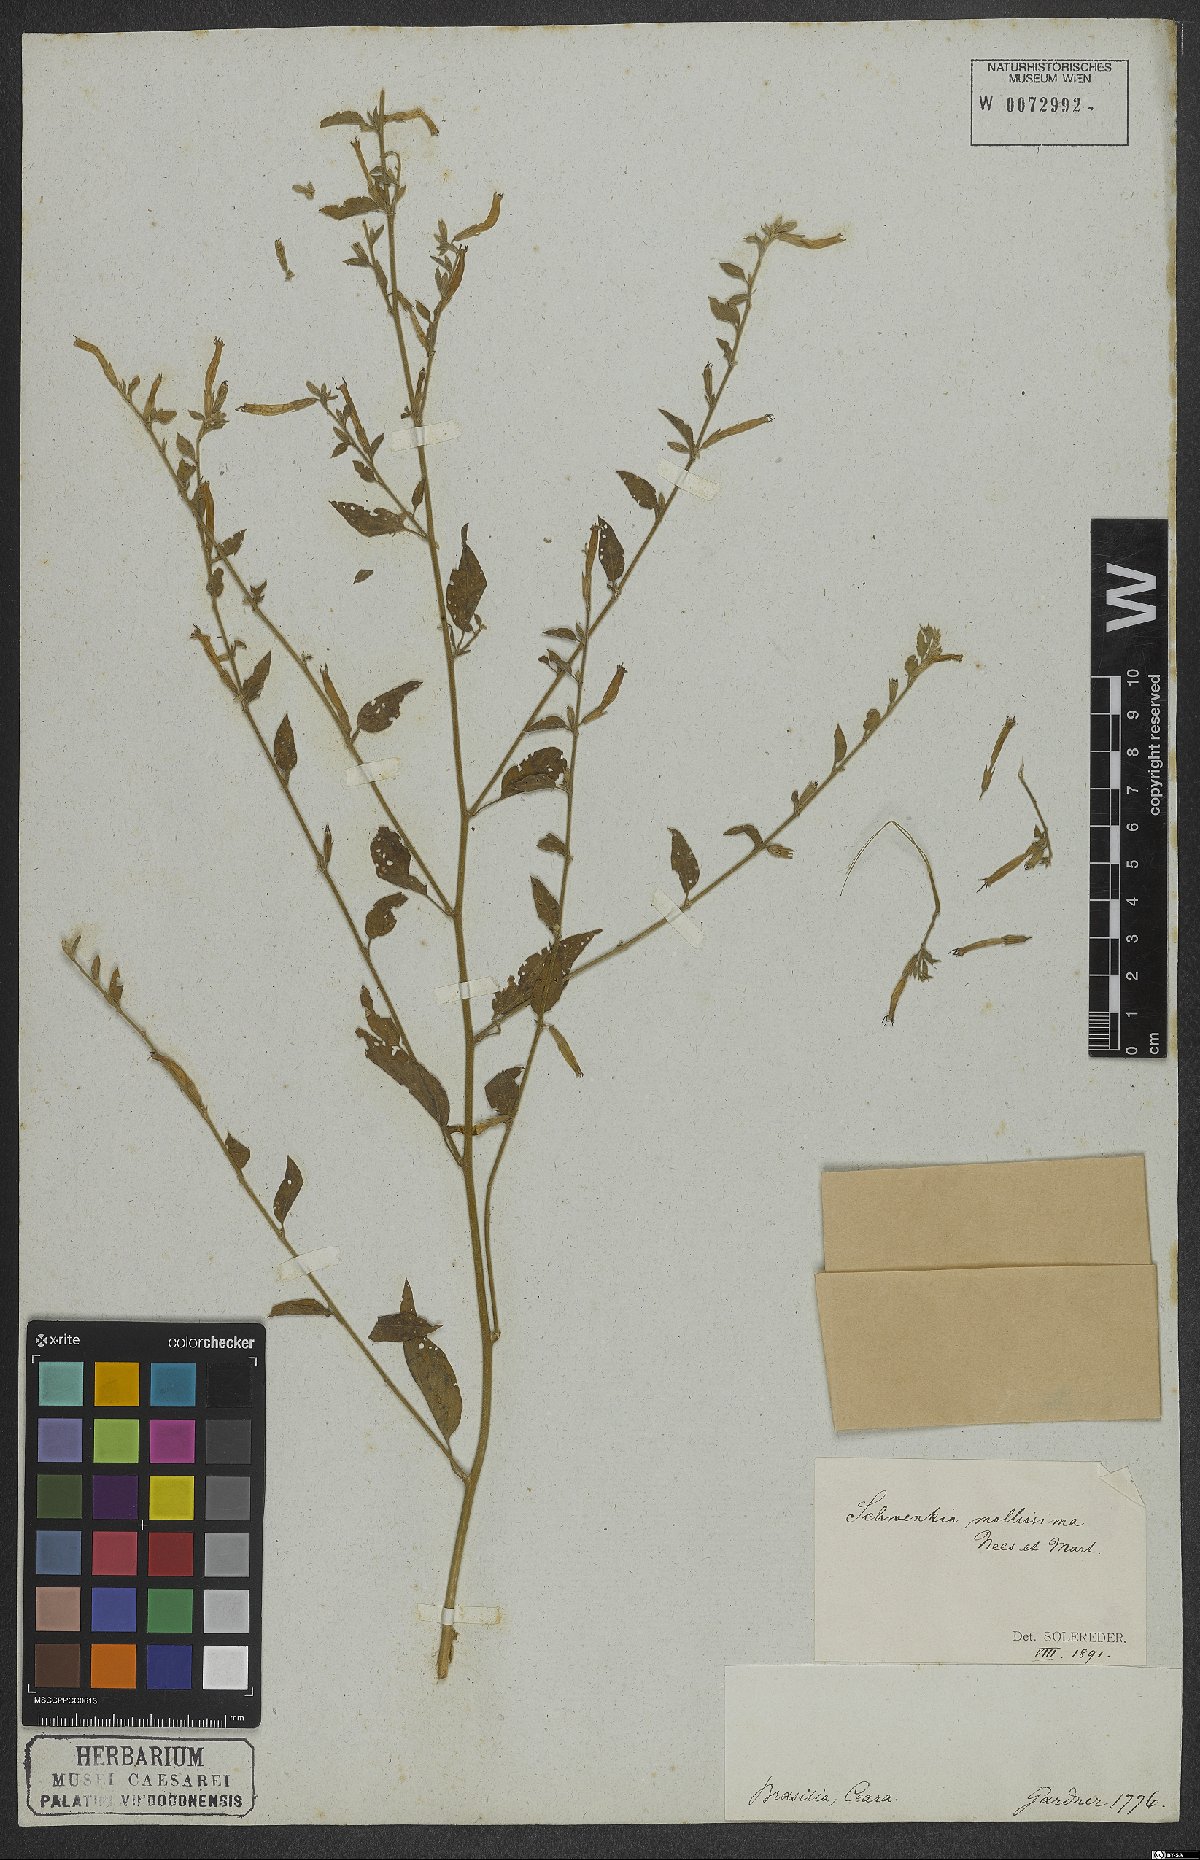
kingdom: Plantae
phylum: Tracheophyta
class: Magnoliopsida
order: Solanales
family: Solanaceae
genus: Schwenckia
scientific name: Schwenckia paniculata
